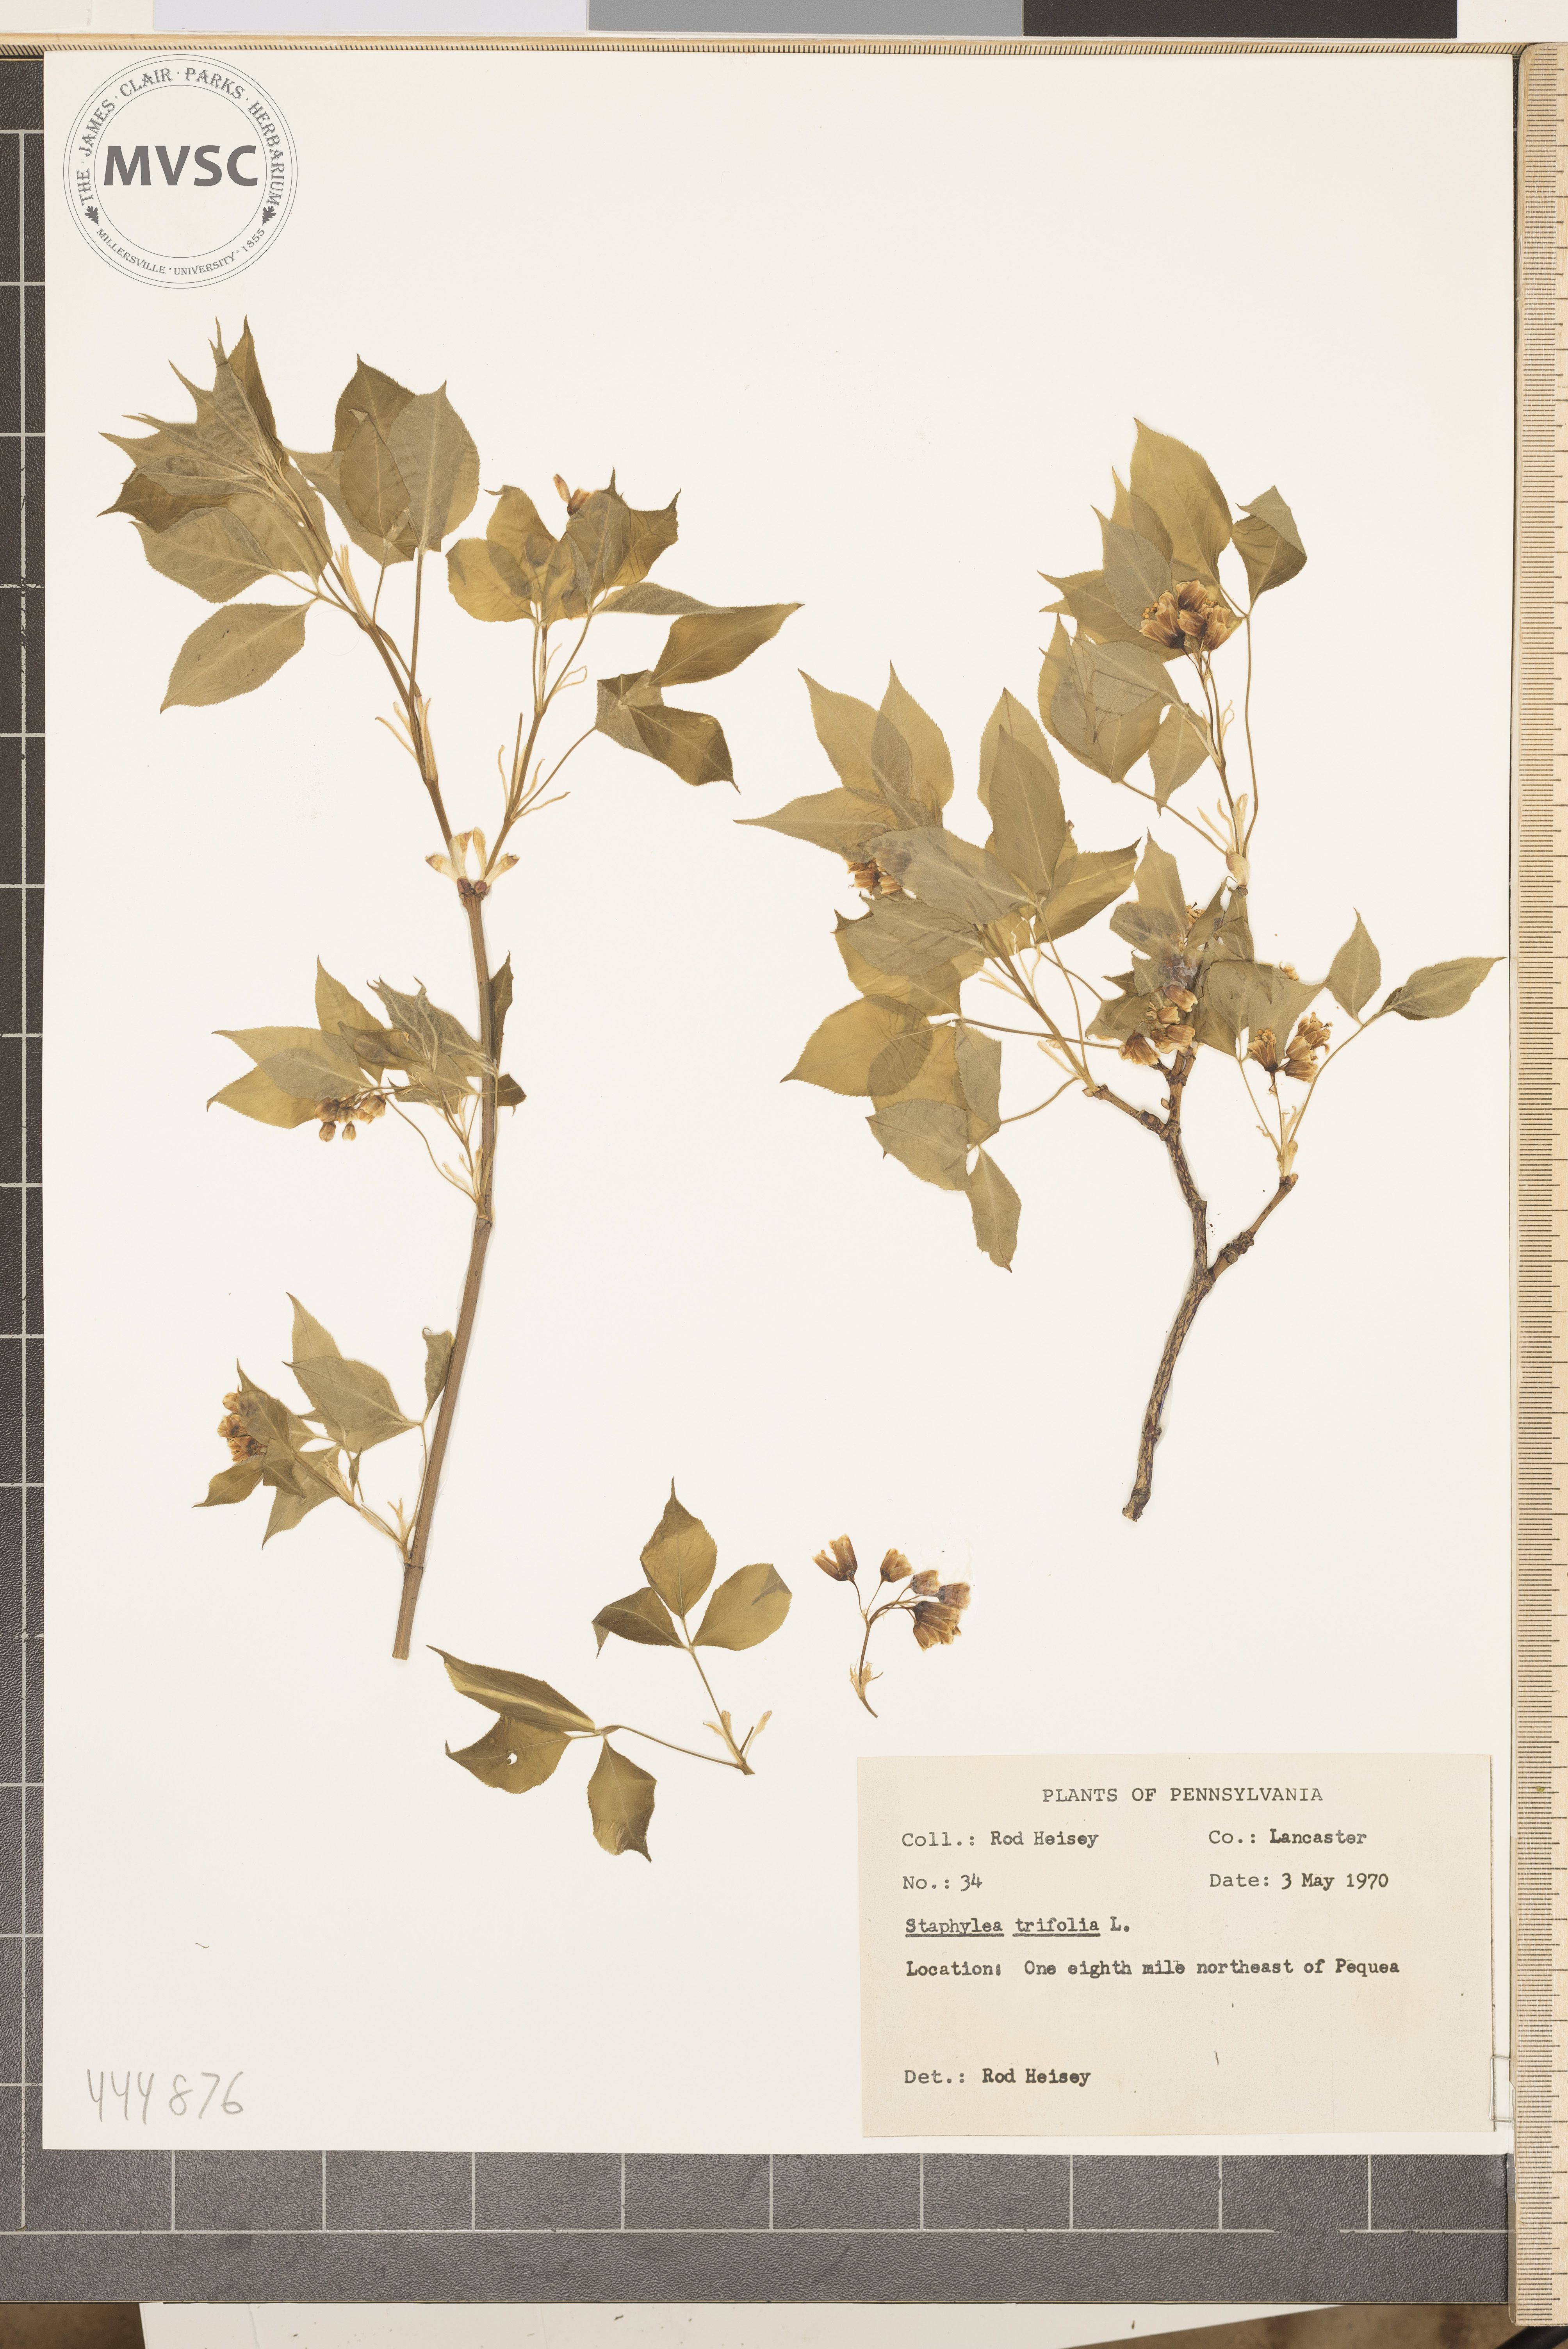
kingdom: Plantae
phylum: Tracheophyta
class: Magnoliopsida
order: Crossosomatales
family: Staphyleaceae
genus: Staphylea
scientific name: Staphylea trifolia
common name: American bladdernut
